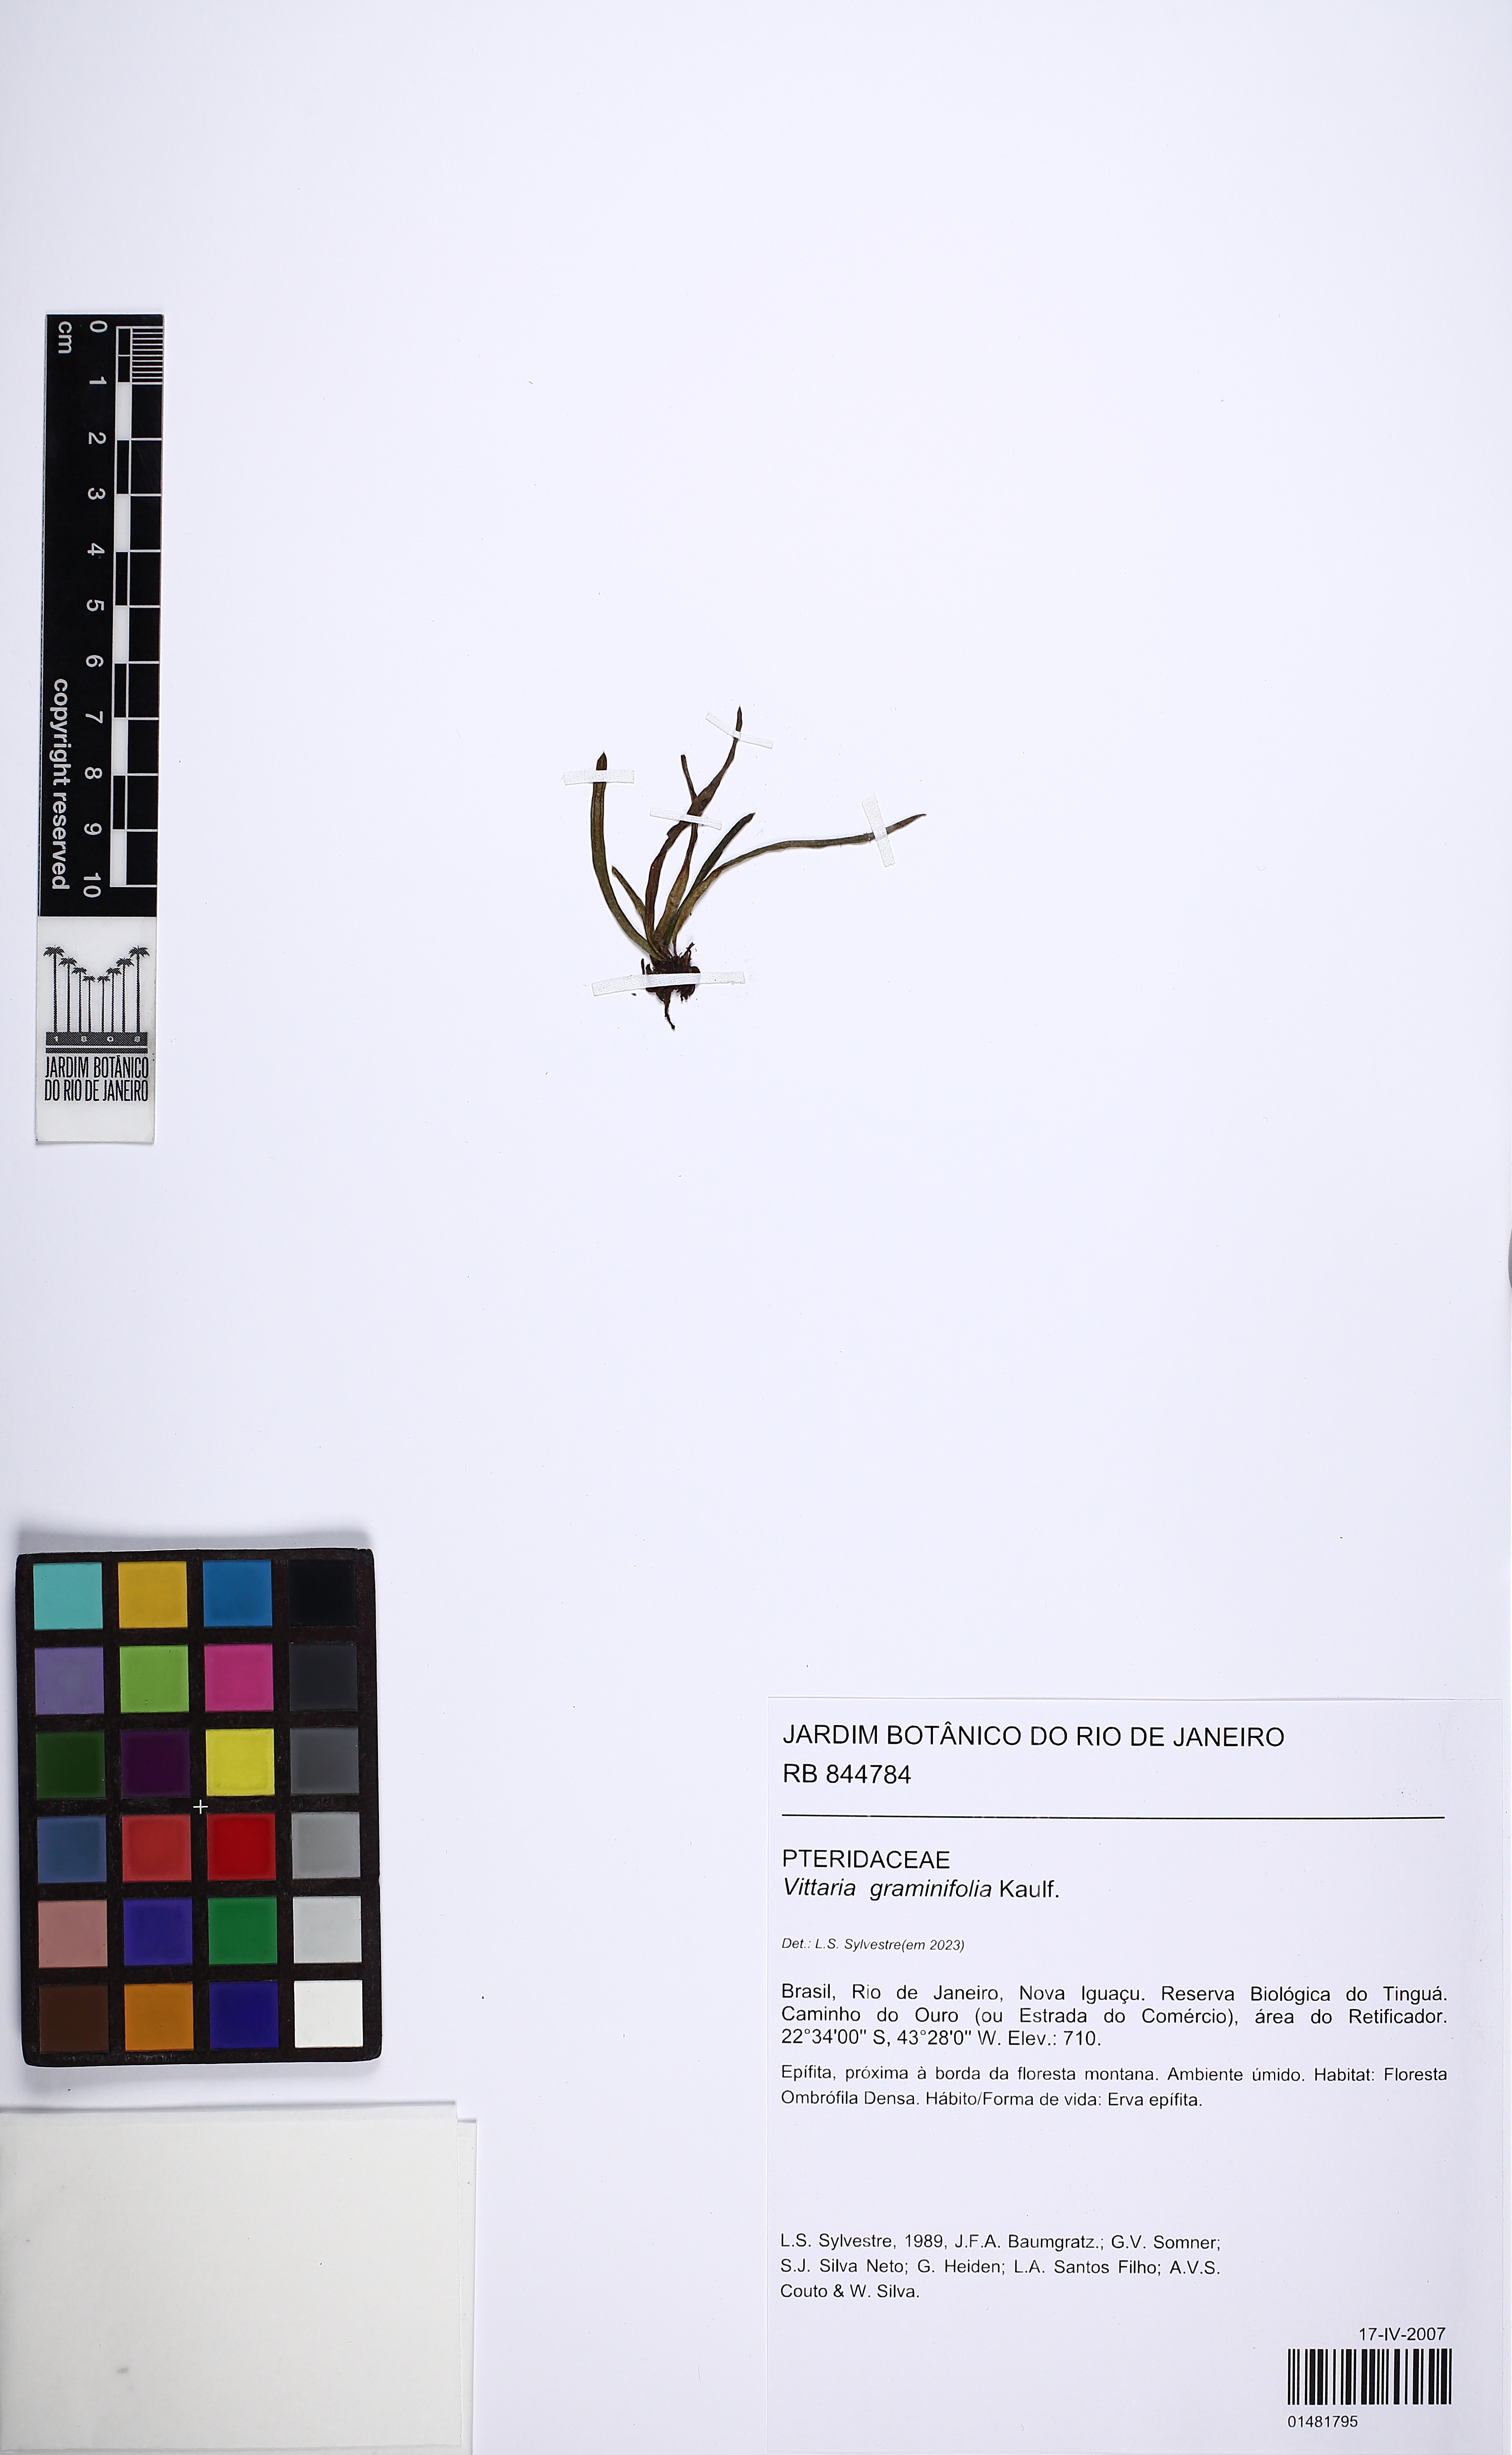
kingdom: Plantae
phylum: Tracheophyta
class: Polypodiopsida
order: Polypodiales
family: Pteridaceae
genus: Vittaria
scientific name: Vittaria graminifolia
